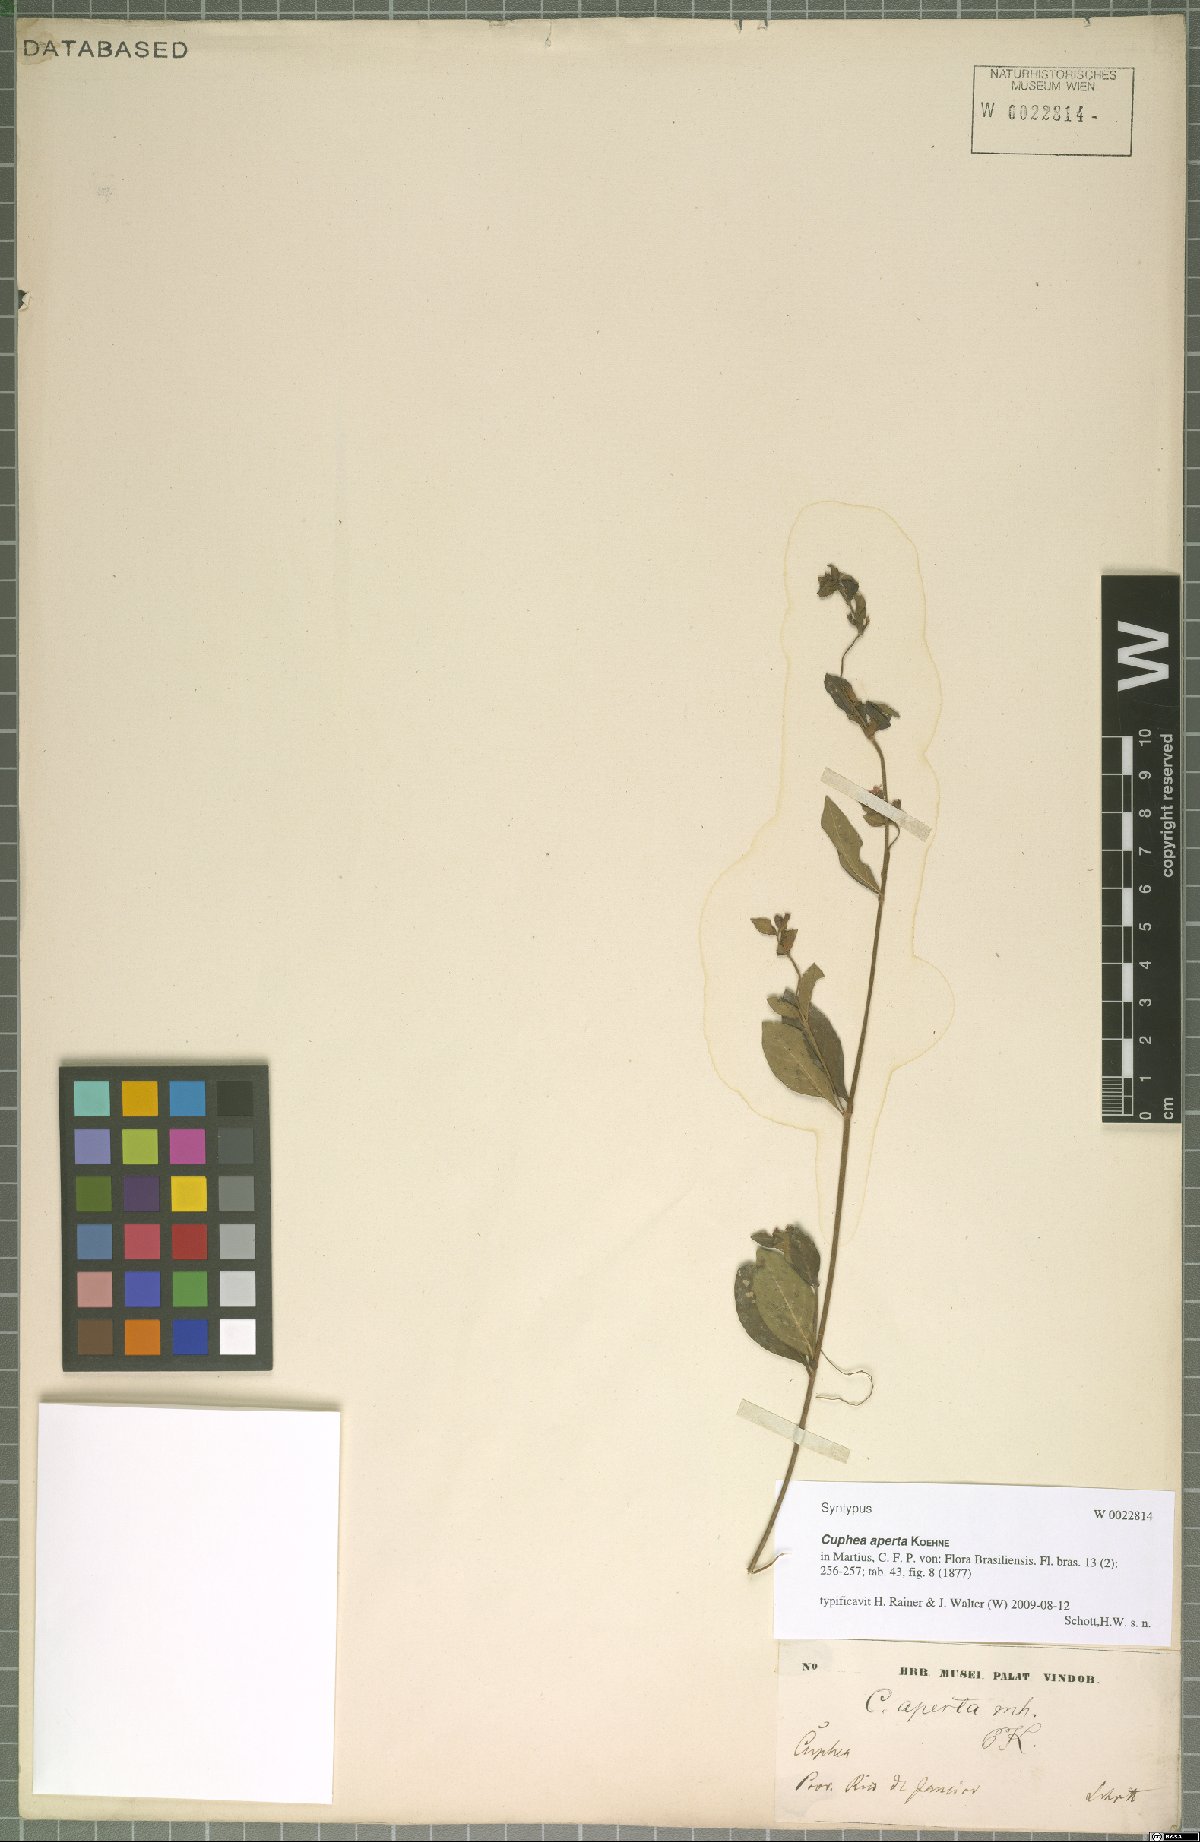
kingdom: Plantae
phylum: Tracheophyta
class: Magnoliopsida
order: Myrtales
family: Lythraceae
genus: Cuphea
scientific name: Cuphea aperta
